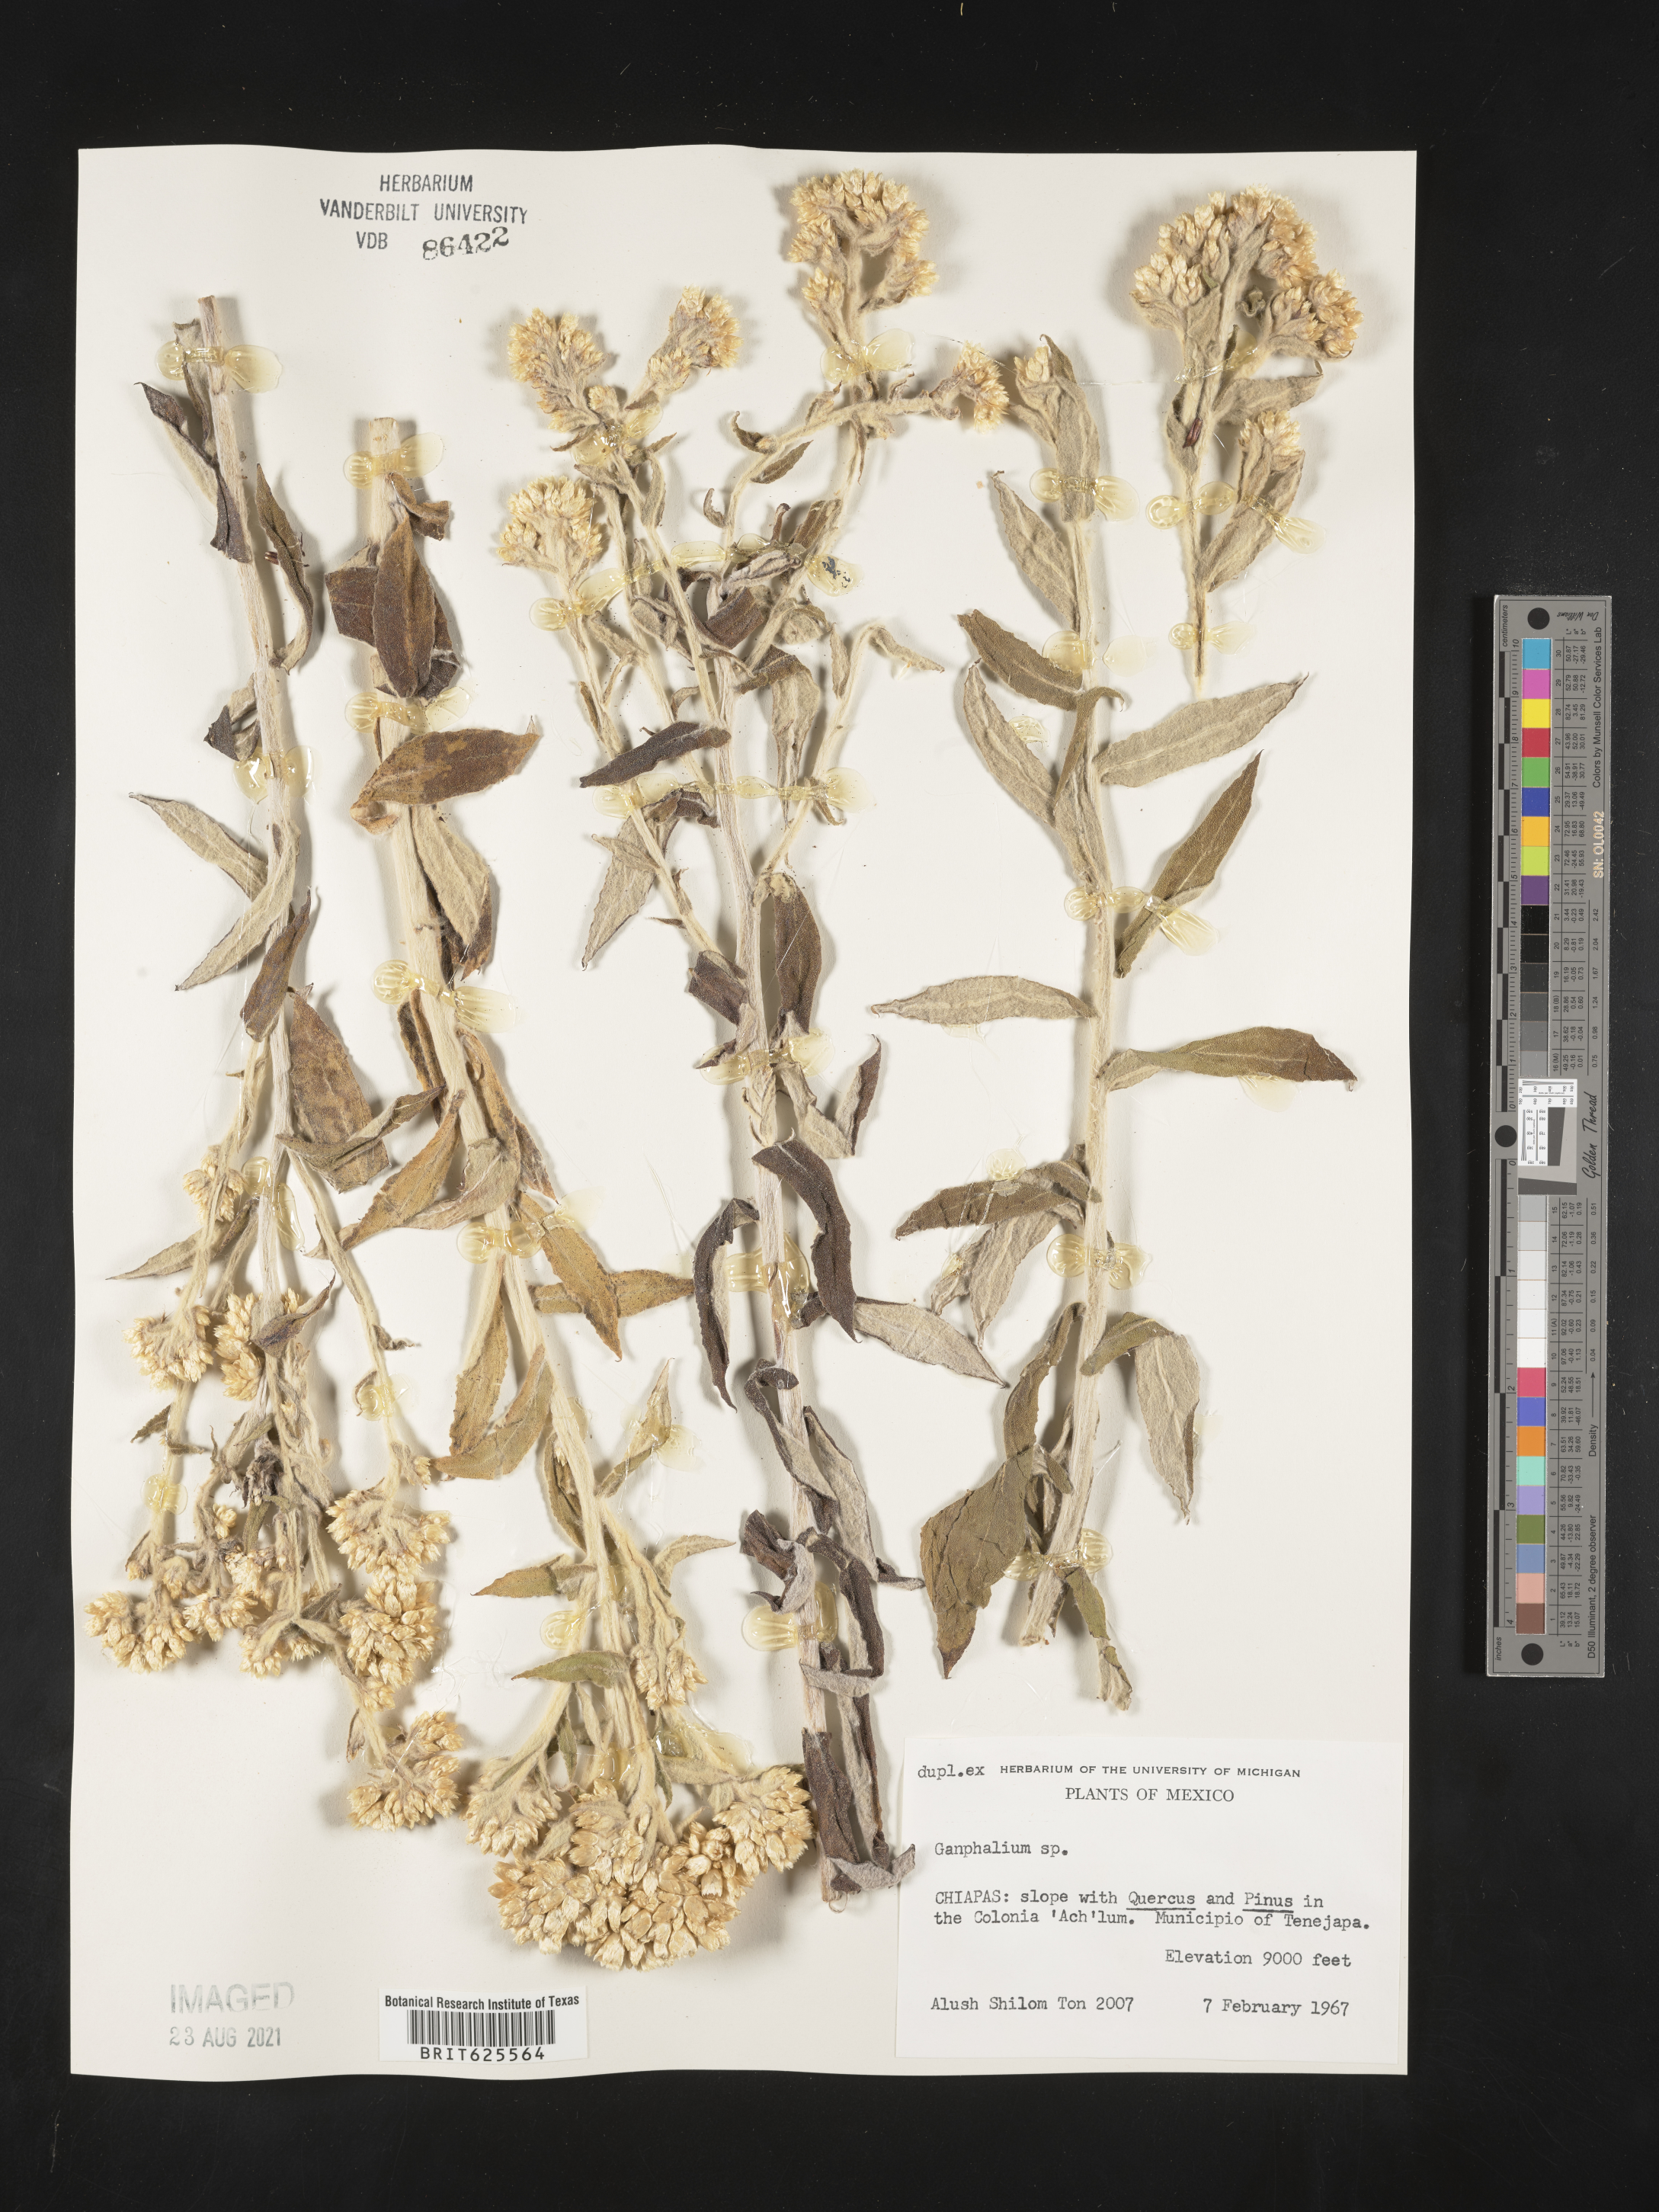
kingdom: Plantae
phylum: Tracheophyta
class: Magnoliopsida
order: Asterales
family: Asteraceae
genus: Gnaphalium
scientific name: Gnaphalium
